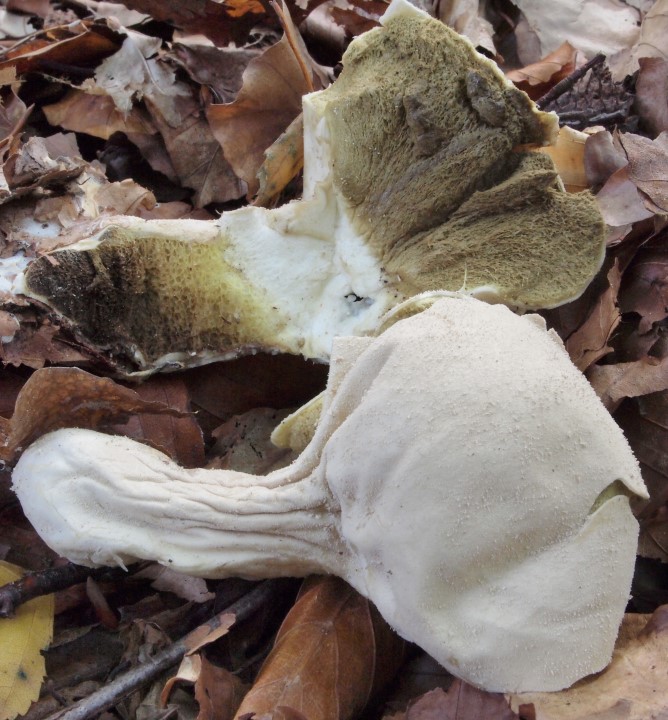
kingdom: Fungi
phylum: Basidiomycota
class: Agaricomycetes
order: Agaricales
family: Lycoperdaceae
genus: Lycoperdon
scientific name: Lycoperdon excipuliforme
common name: højstokket støvbold
